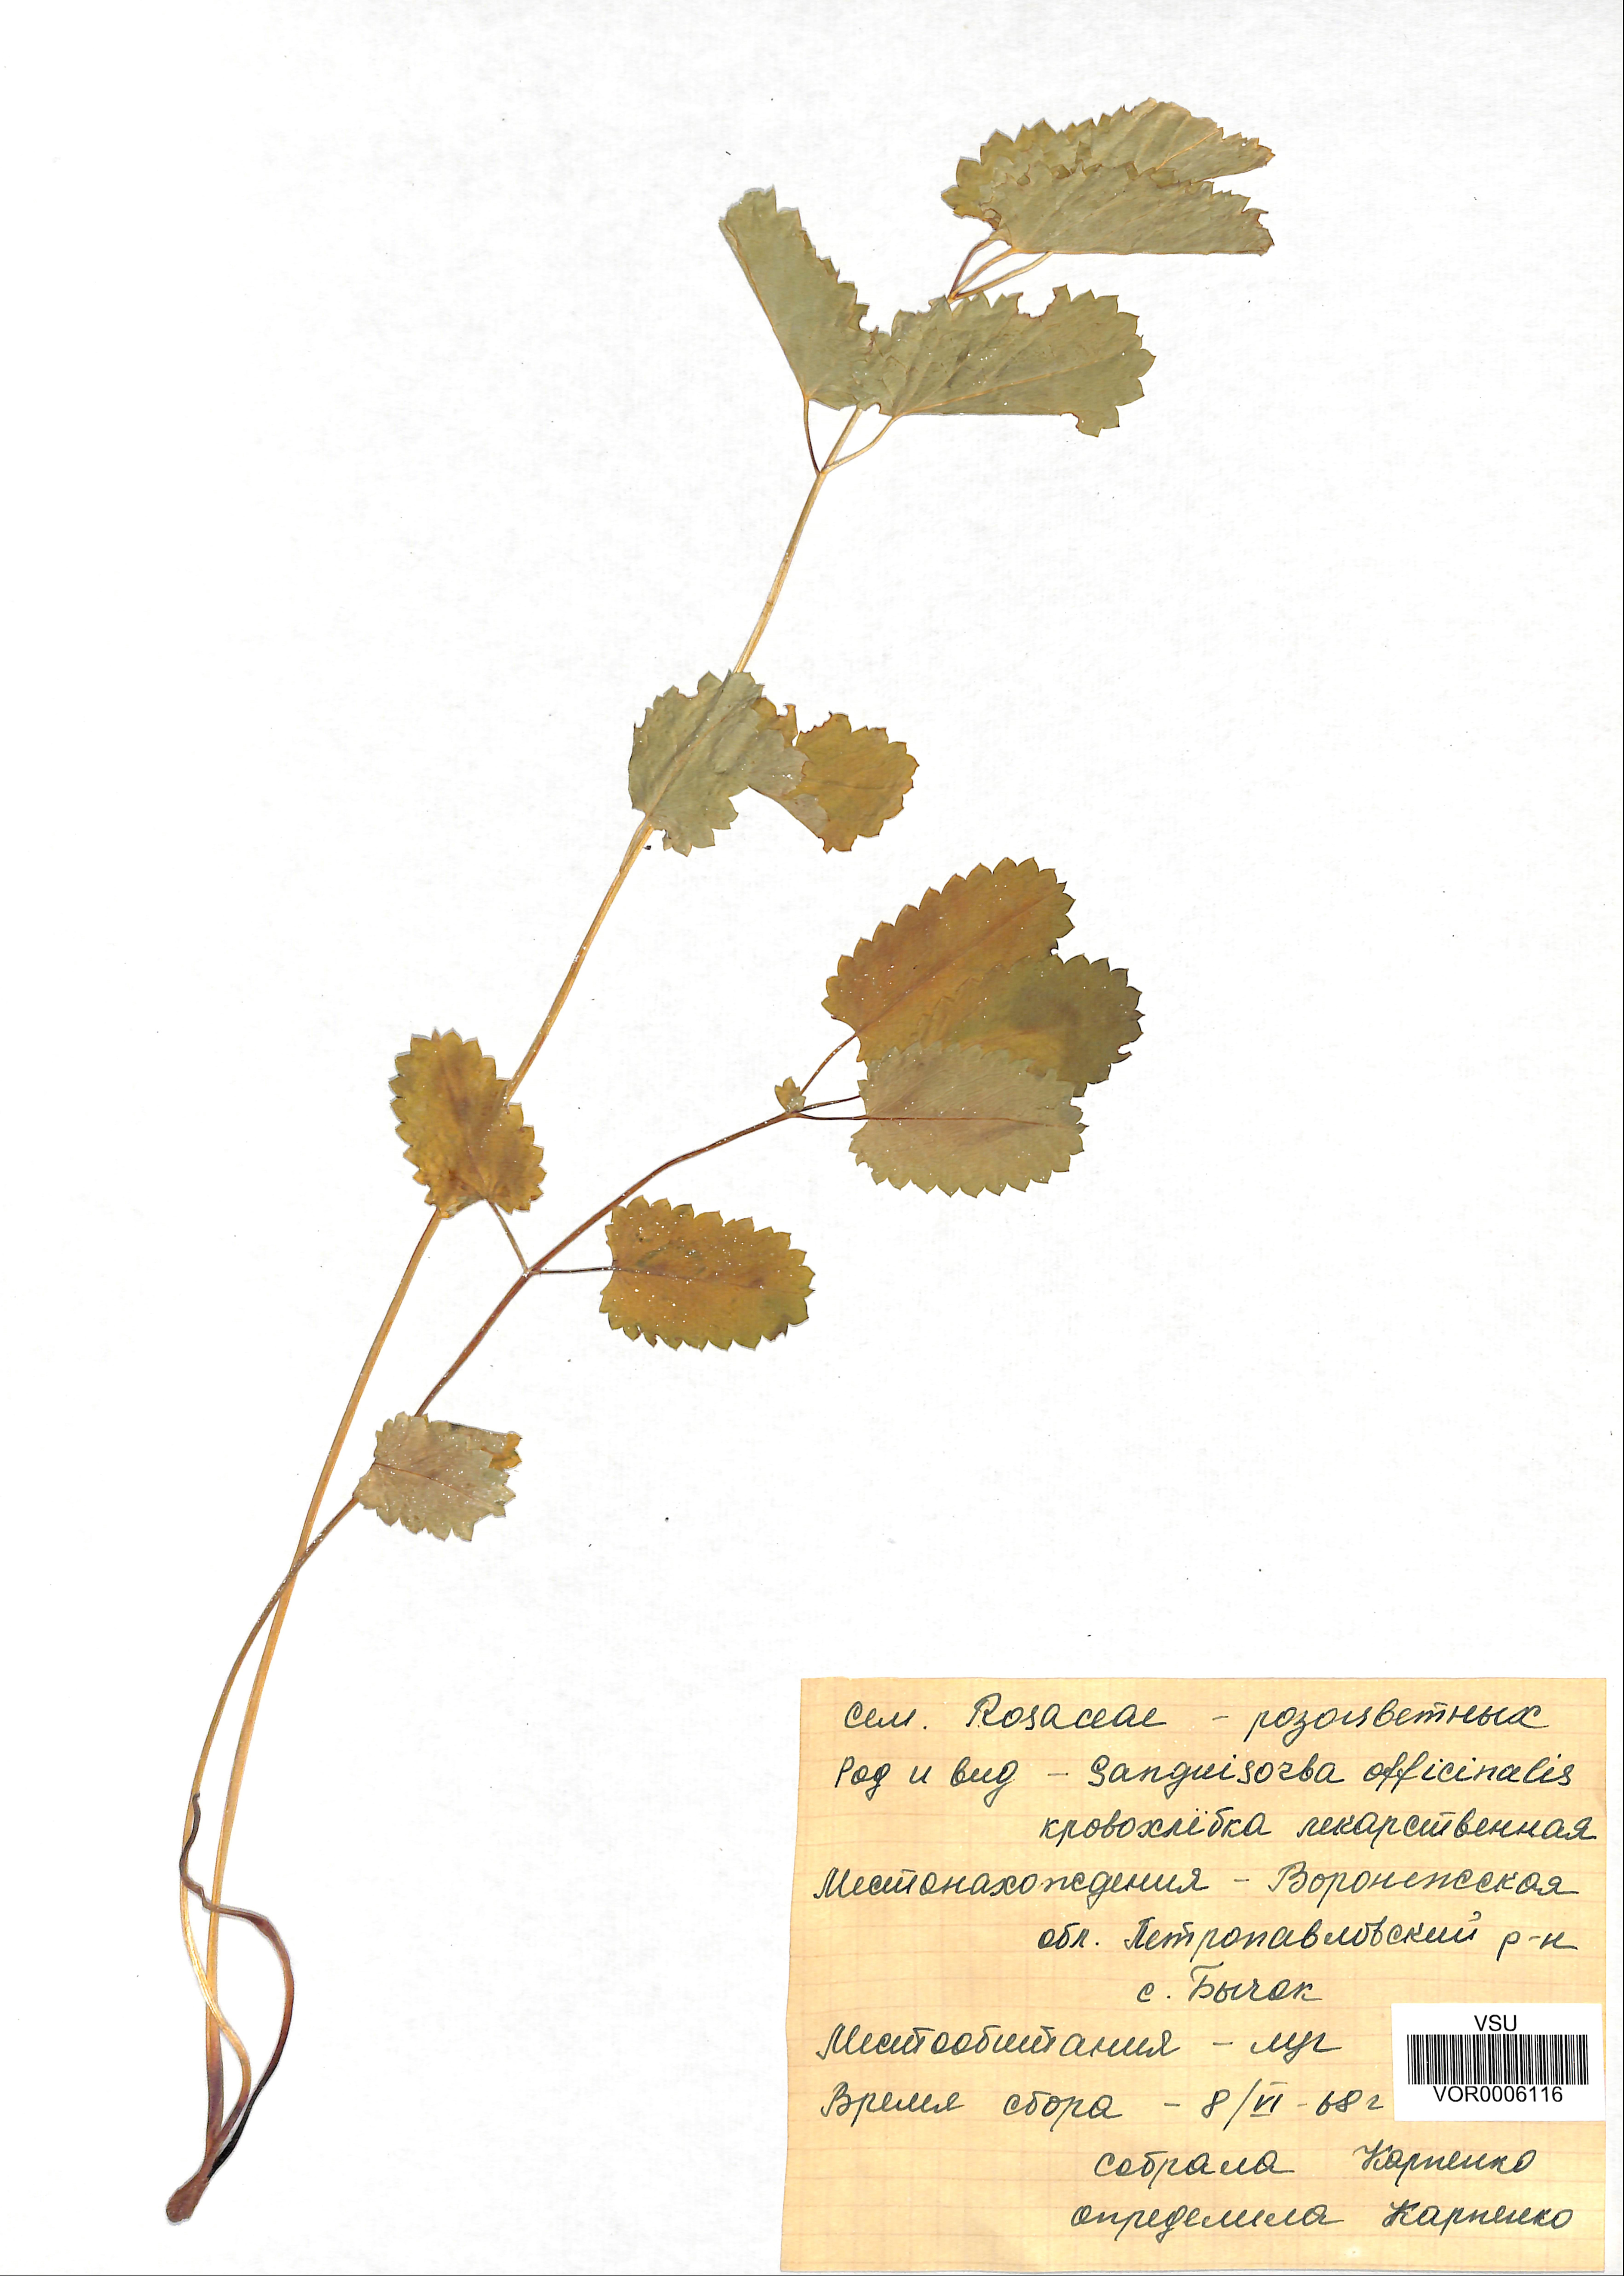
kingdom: Plantae
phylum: Tracheophyta
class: Magnoliopsida
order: Rosales
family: Rosaceae
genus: Sanguisorba
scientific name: Sanguisorba officinalis
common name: Great burnet
